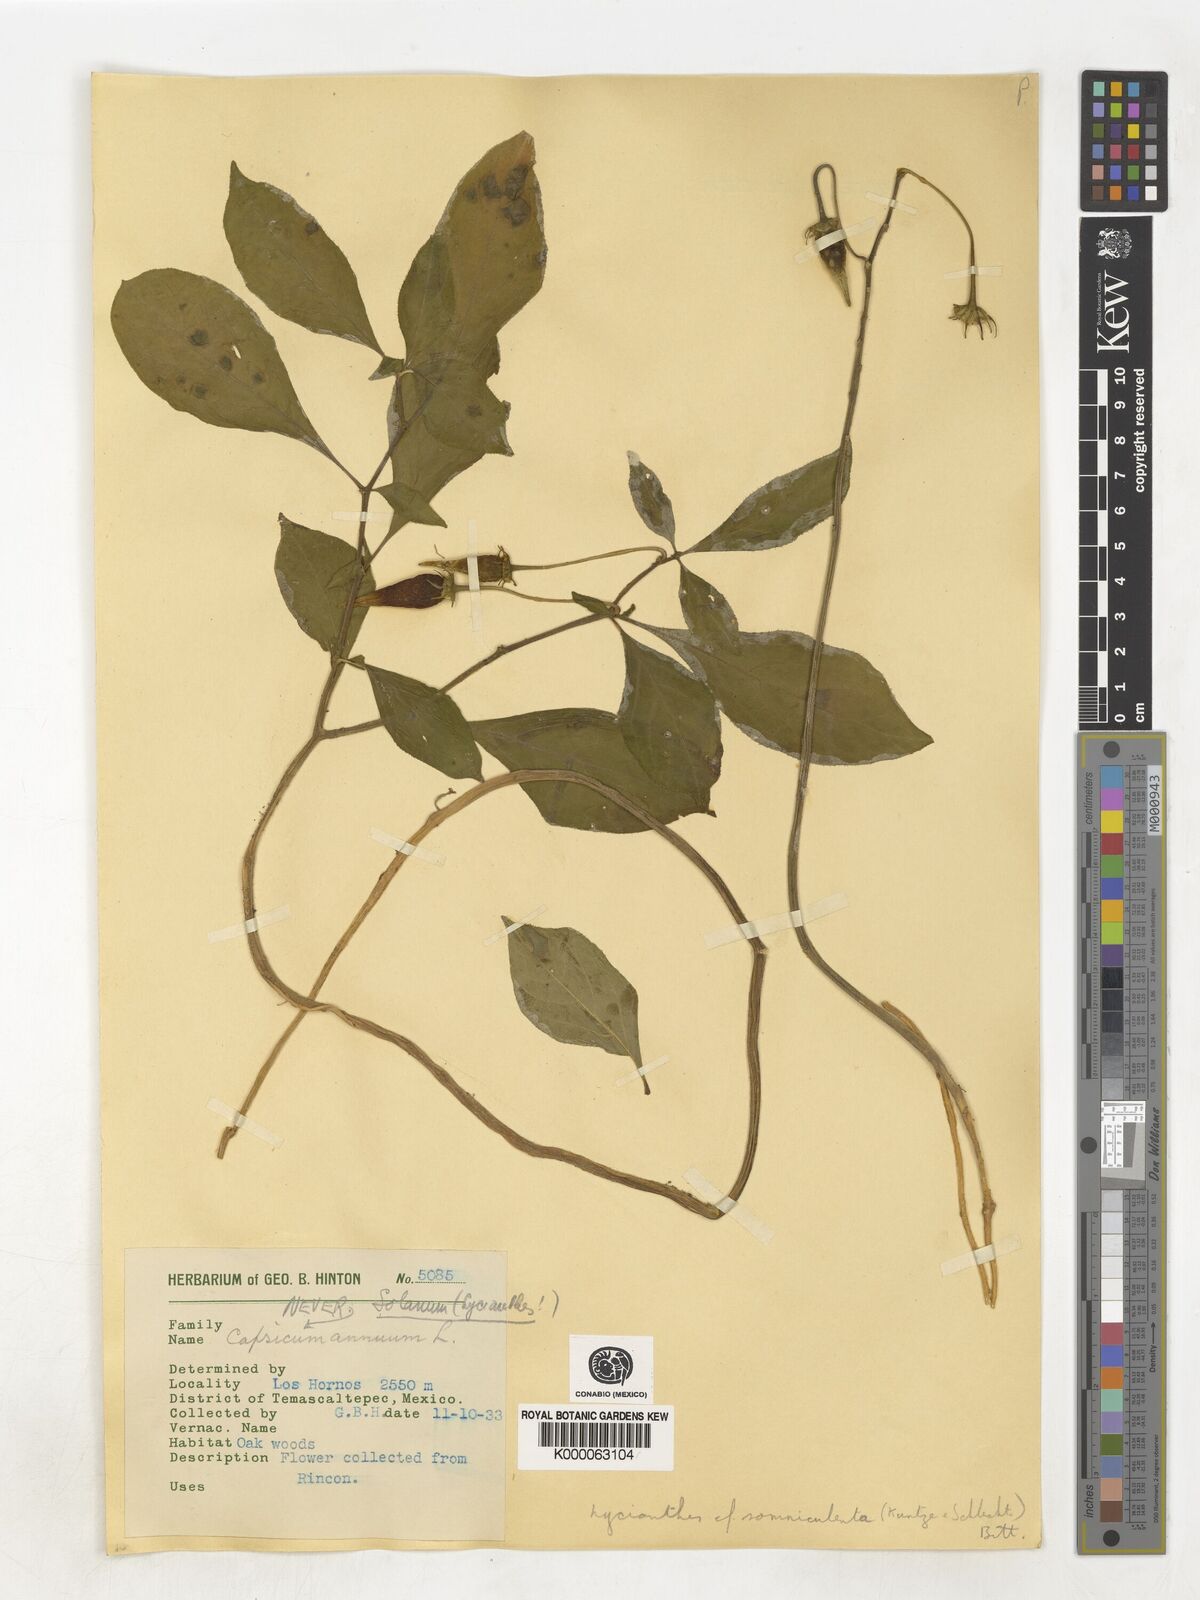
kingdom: Plantae
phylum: Tracheophyta
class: Magnoliopsida
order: Solanales
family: Solanaceae
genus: Lycianthes
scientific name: Lycianthes ciliolata
